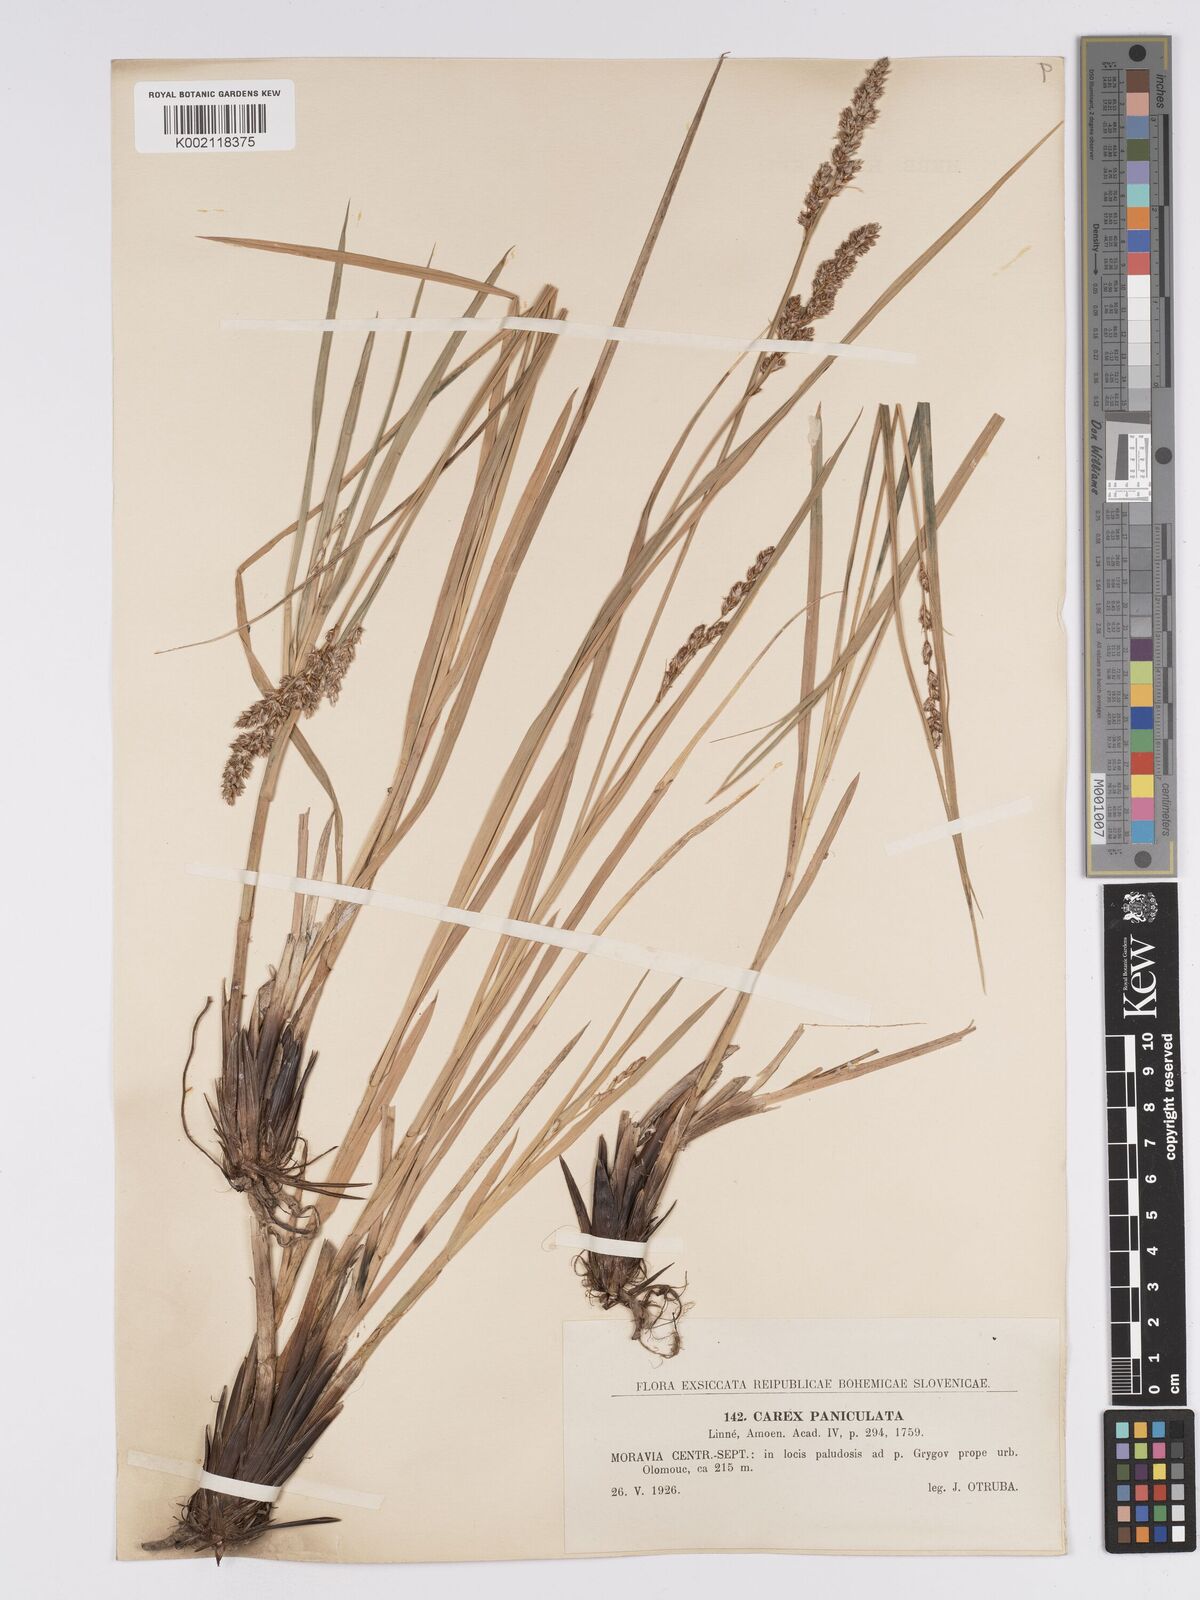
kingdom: Plantae
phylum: Tracheophyta
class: Liliopsida
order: Poales
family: Cyperaceae
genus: Carex
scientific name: Carex paniculata
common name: Greater tussock-sedge
